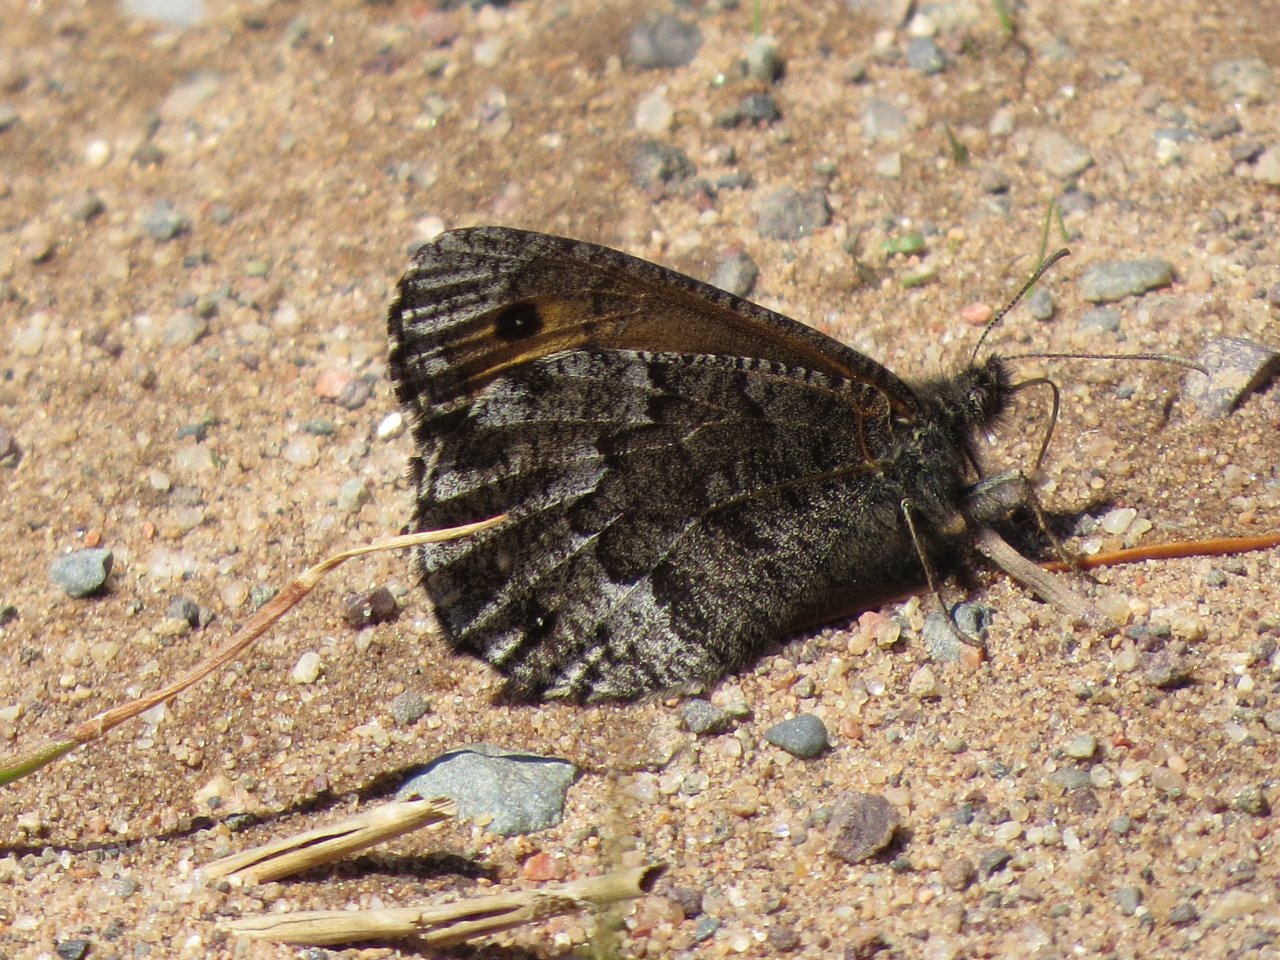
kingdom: Animalia
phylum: Arthropoda
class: Insecta
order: Lepidoptera
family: Nymphalidae
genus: Oeneis
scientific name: Oeneis jutta
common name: Jutta Arctic
